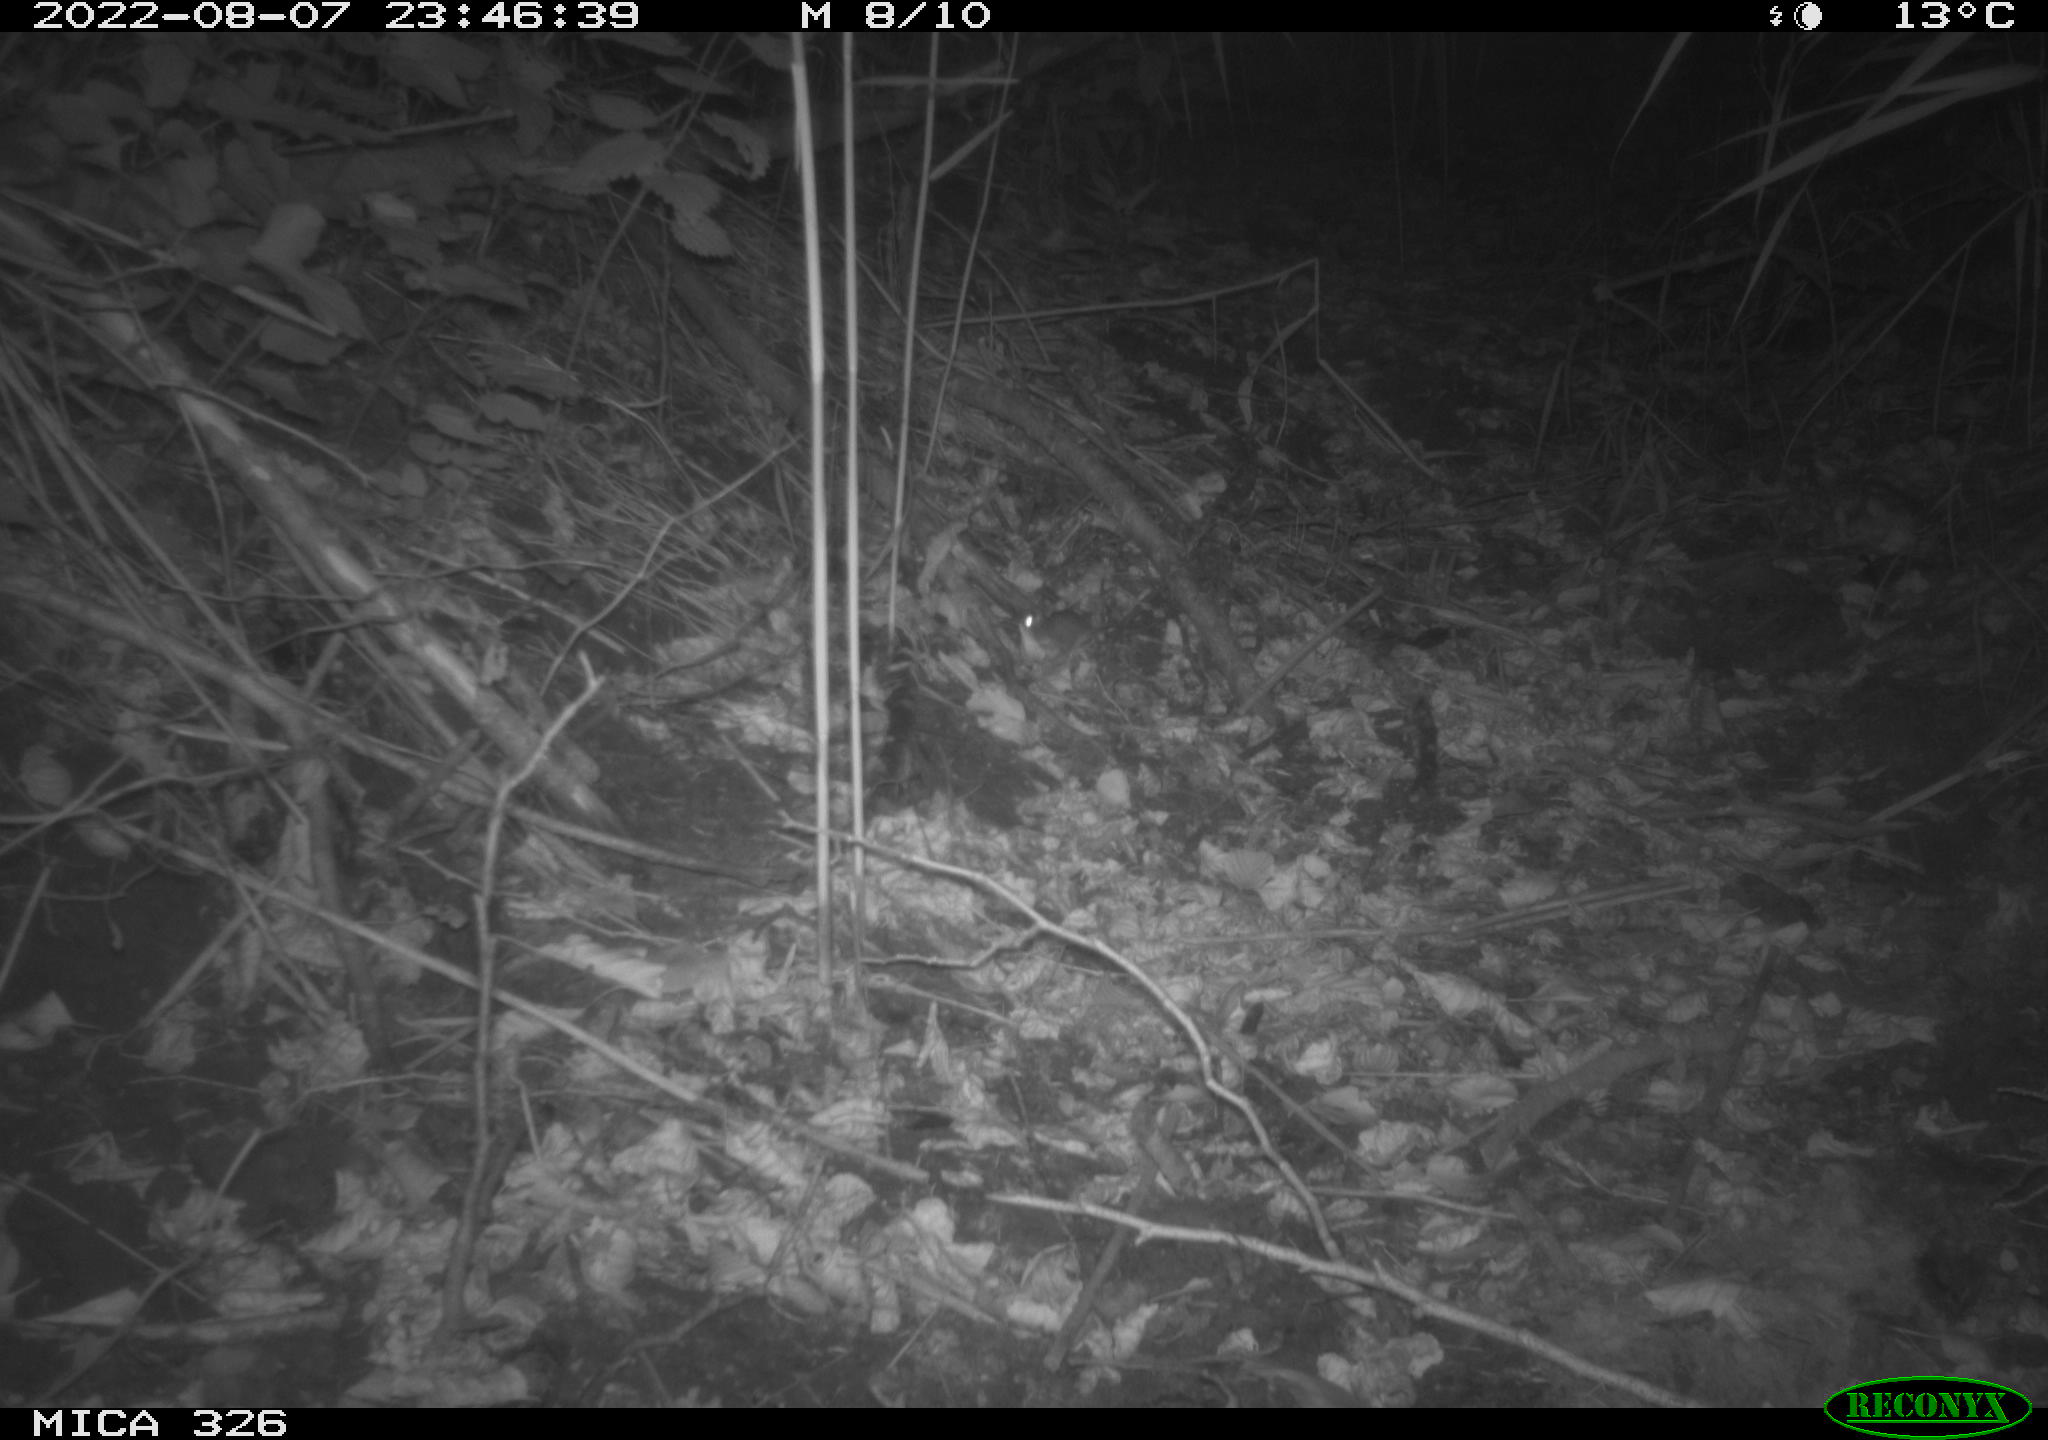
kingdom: Animalia
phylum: Chordata
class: Mammalia
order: Rodentia
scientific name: Rodentia
